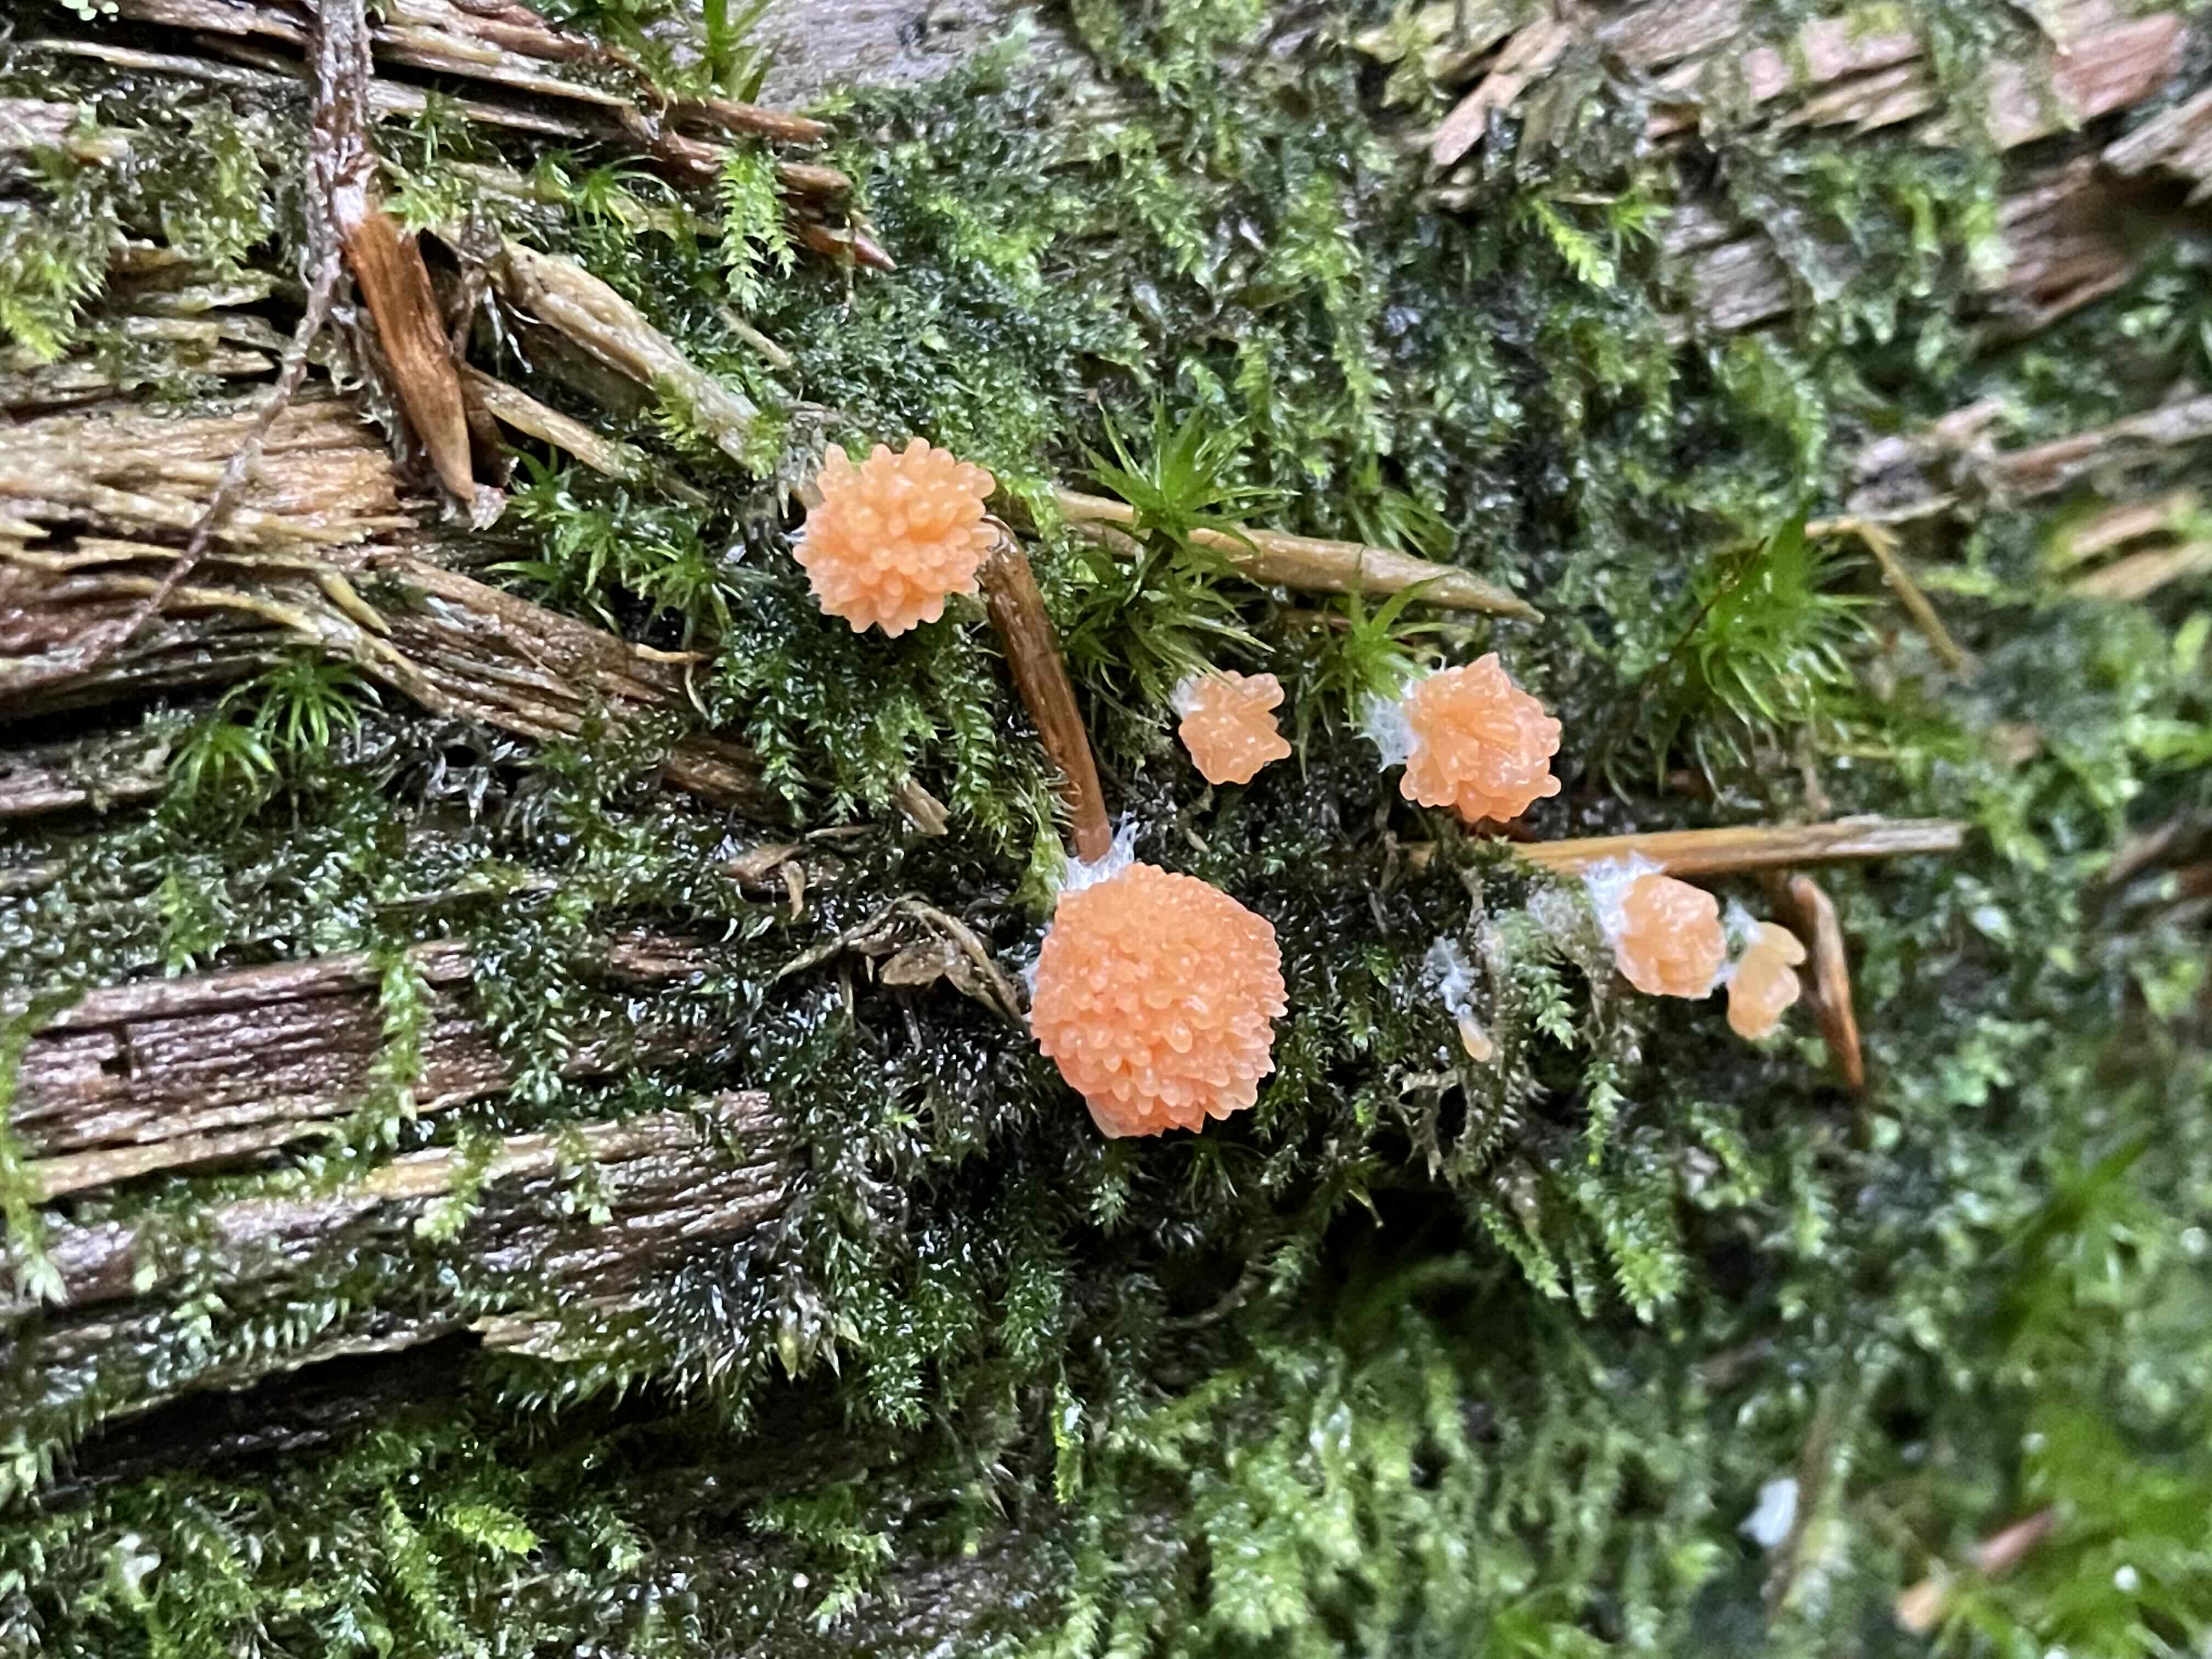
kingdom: Protozoa
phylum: Mycetozoa
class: Myxomycetes
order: Cribrariales
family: Tubiferaceae
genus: Tubifera
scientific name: Tubifera ferruginosa
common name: kanel-støvrør
